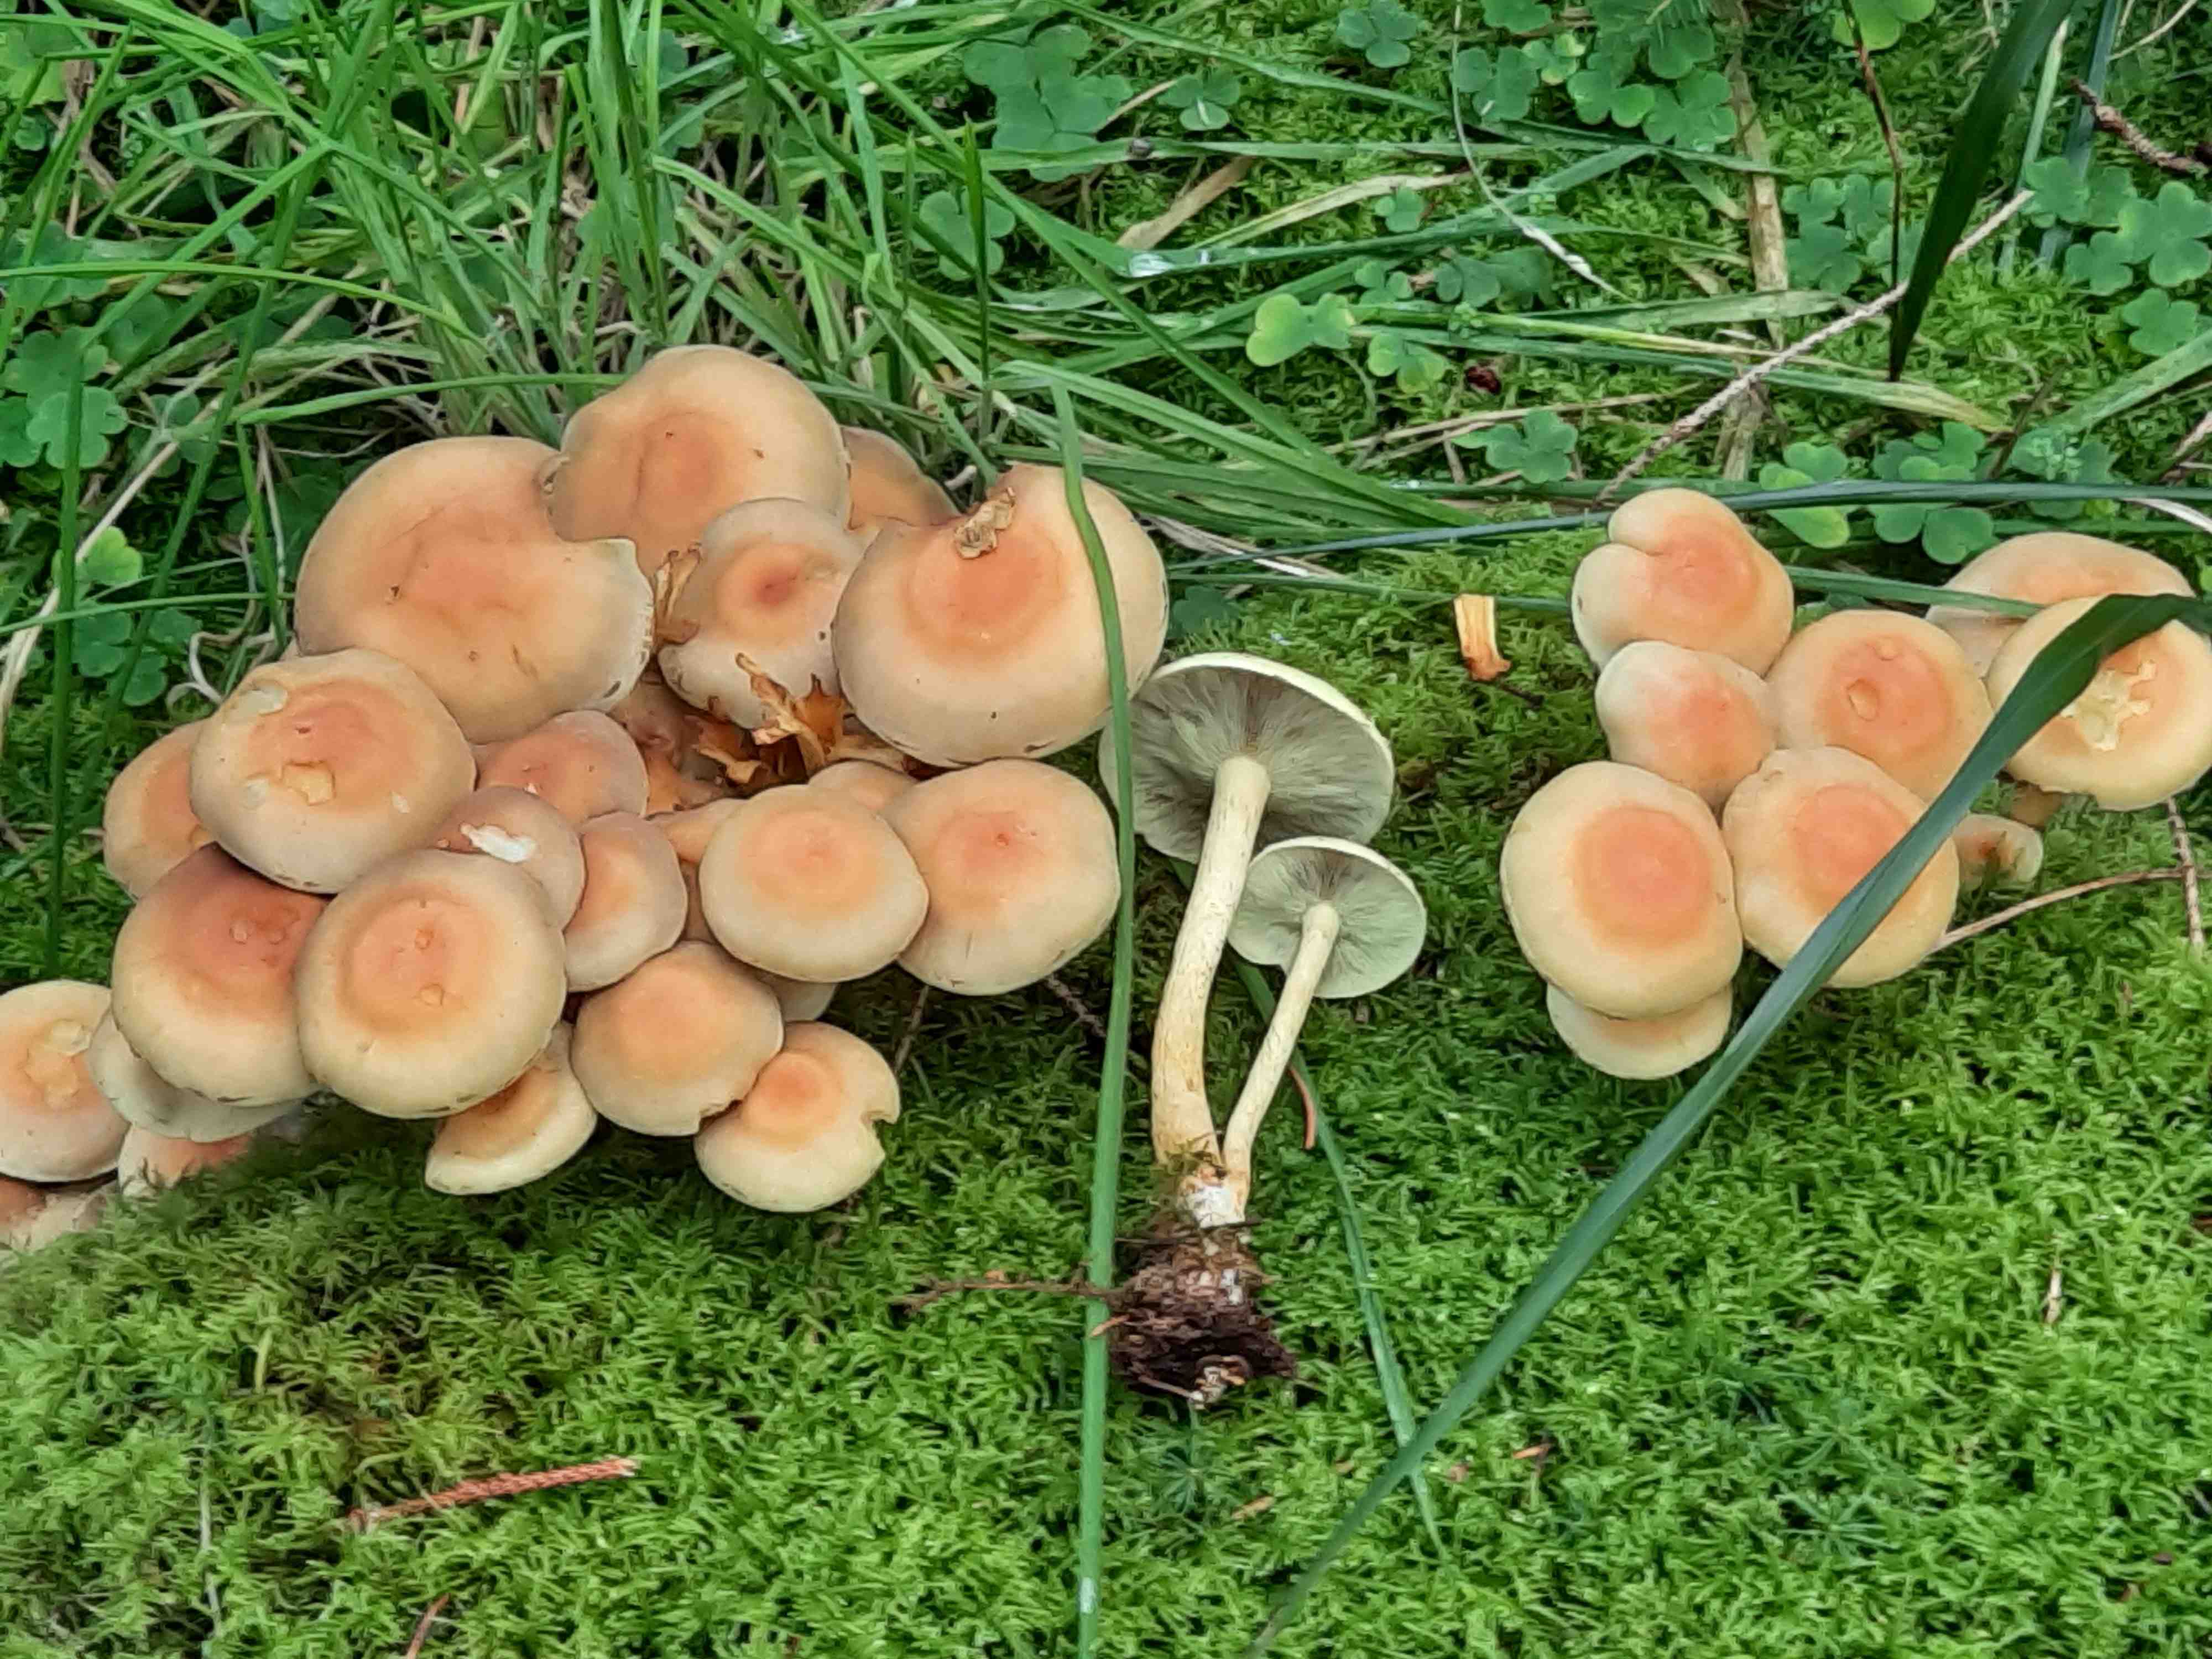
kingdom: Fungi
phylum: Basidiomycota
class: Agaricomycetes
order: Agaricales
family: Strophariaceae
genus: Hypholoma
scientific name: Hypholoma fasciculare
